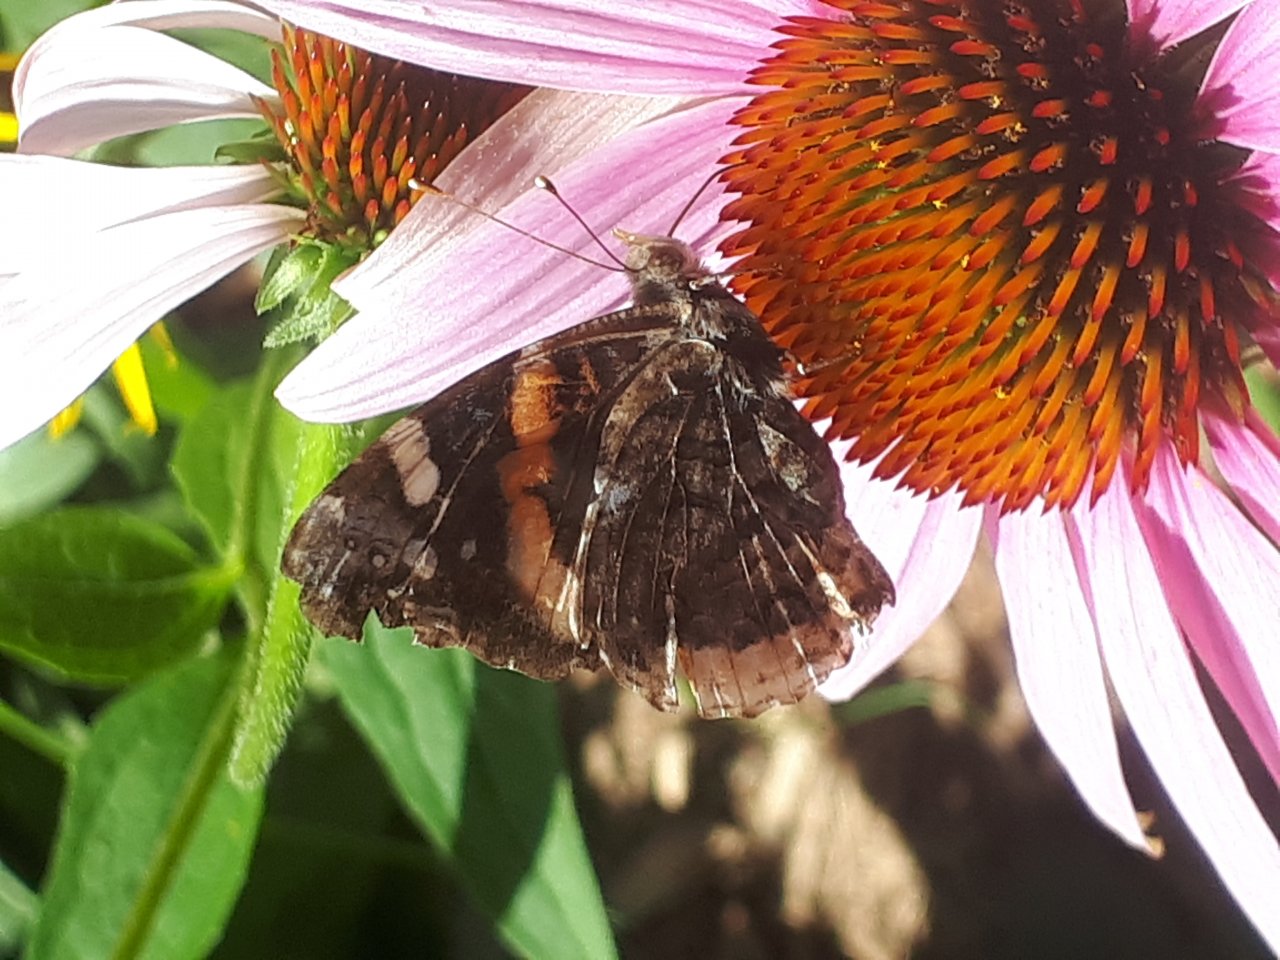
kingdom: Animalia
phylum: Arthropoda
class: Insecta
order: Lepidoptera
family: Nymphalidae
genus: Vanessa
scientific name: Vanessa atalanta
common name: Red Admiral
